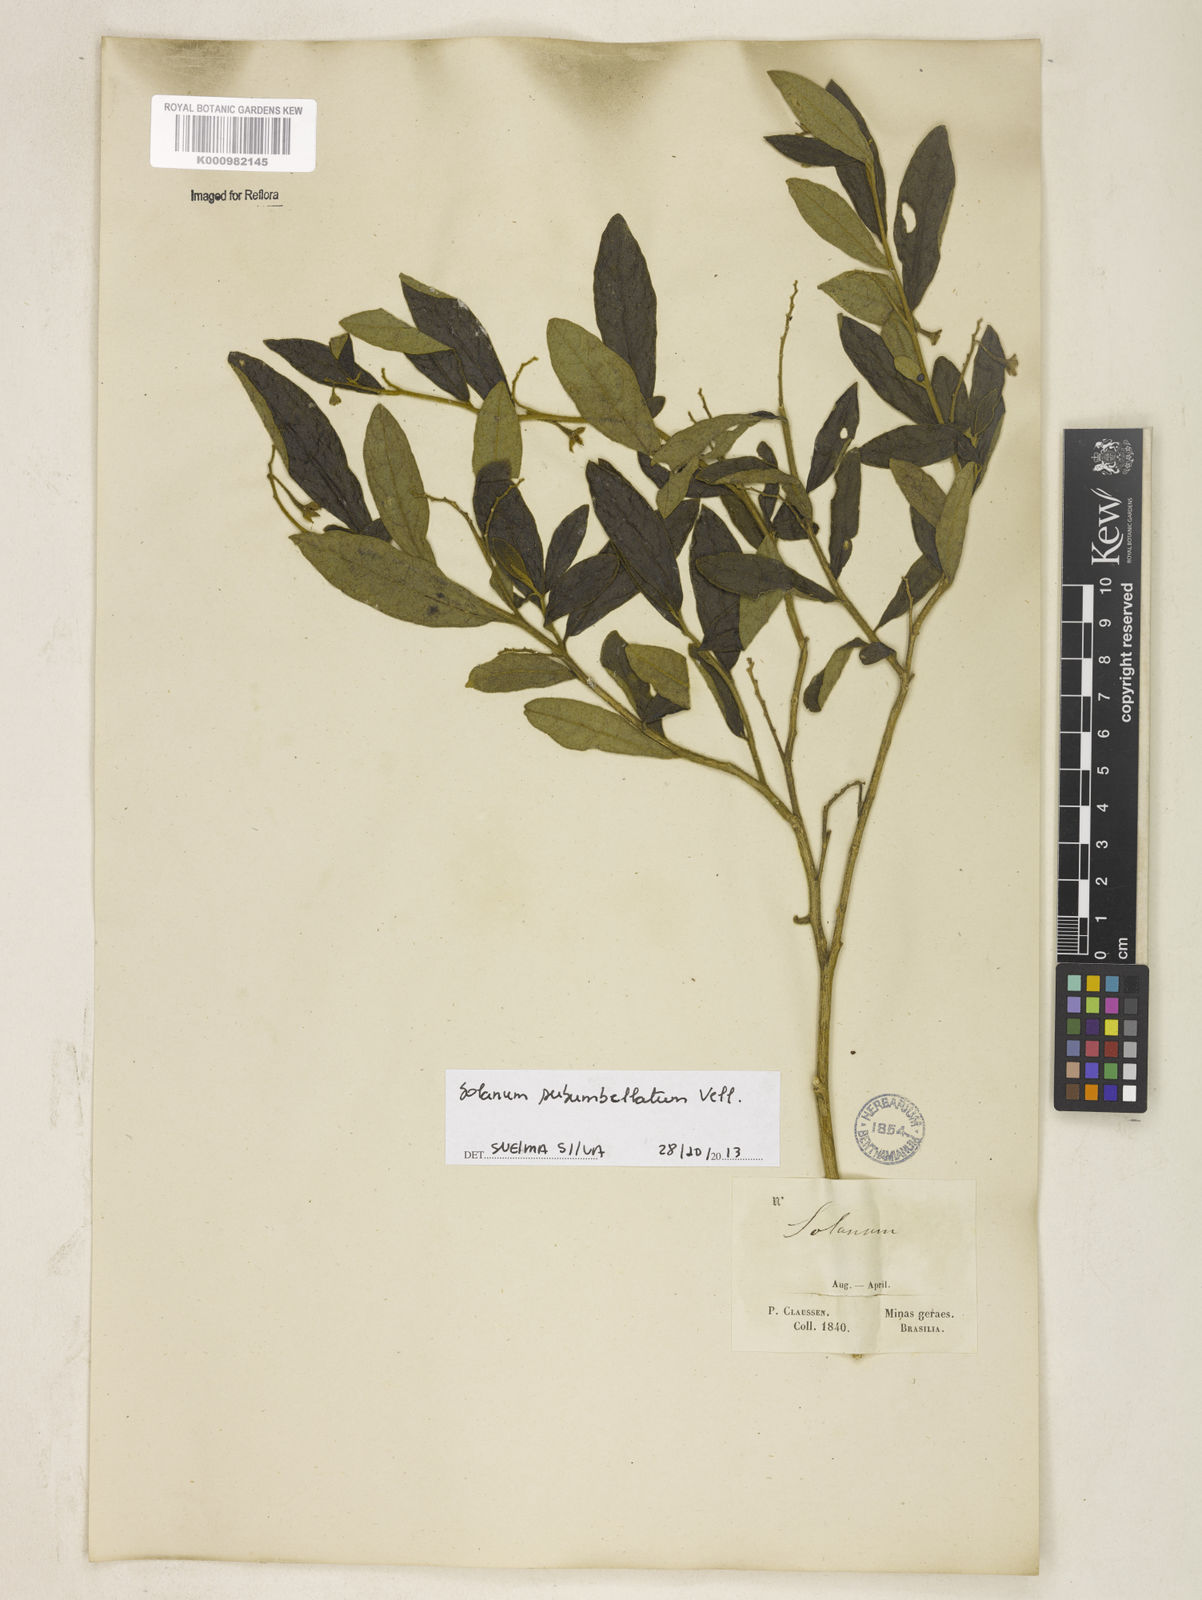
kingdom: Plantae
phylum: Tracheophyta
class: Magnoliopsida
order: Solanales
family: Solanaceae
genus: Solanum
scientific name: Solanum subumbellatum
